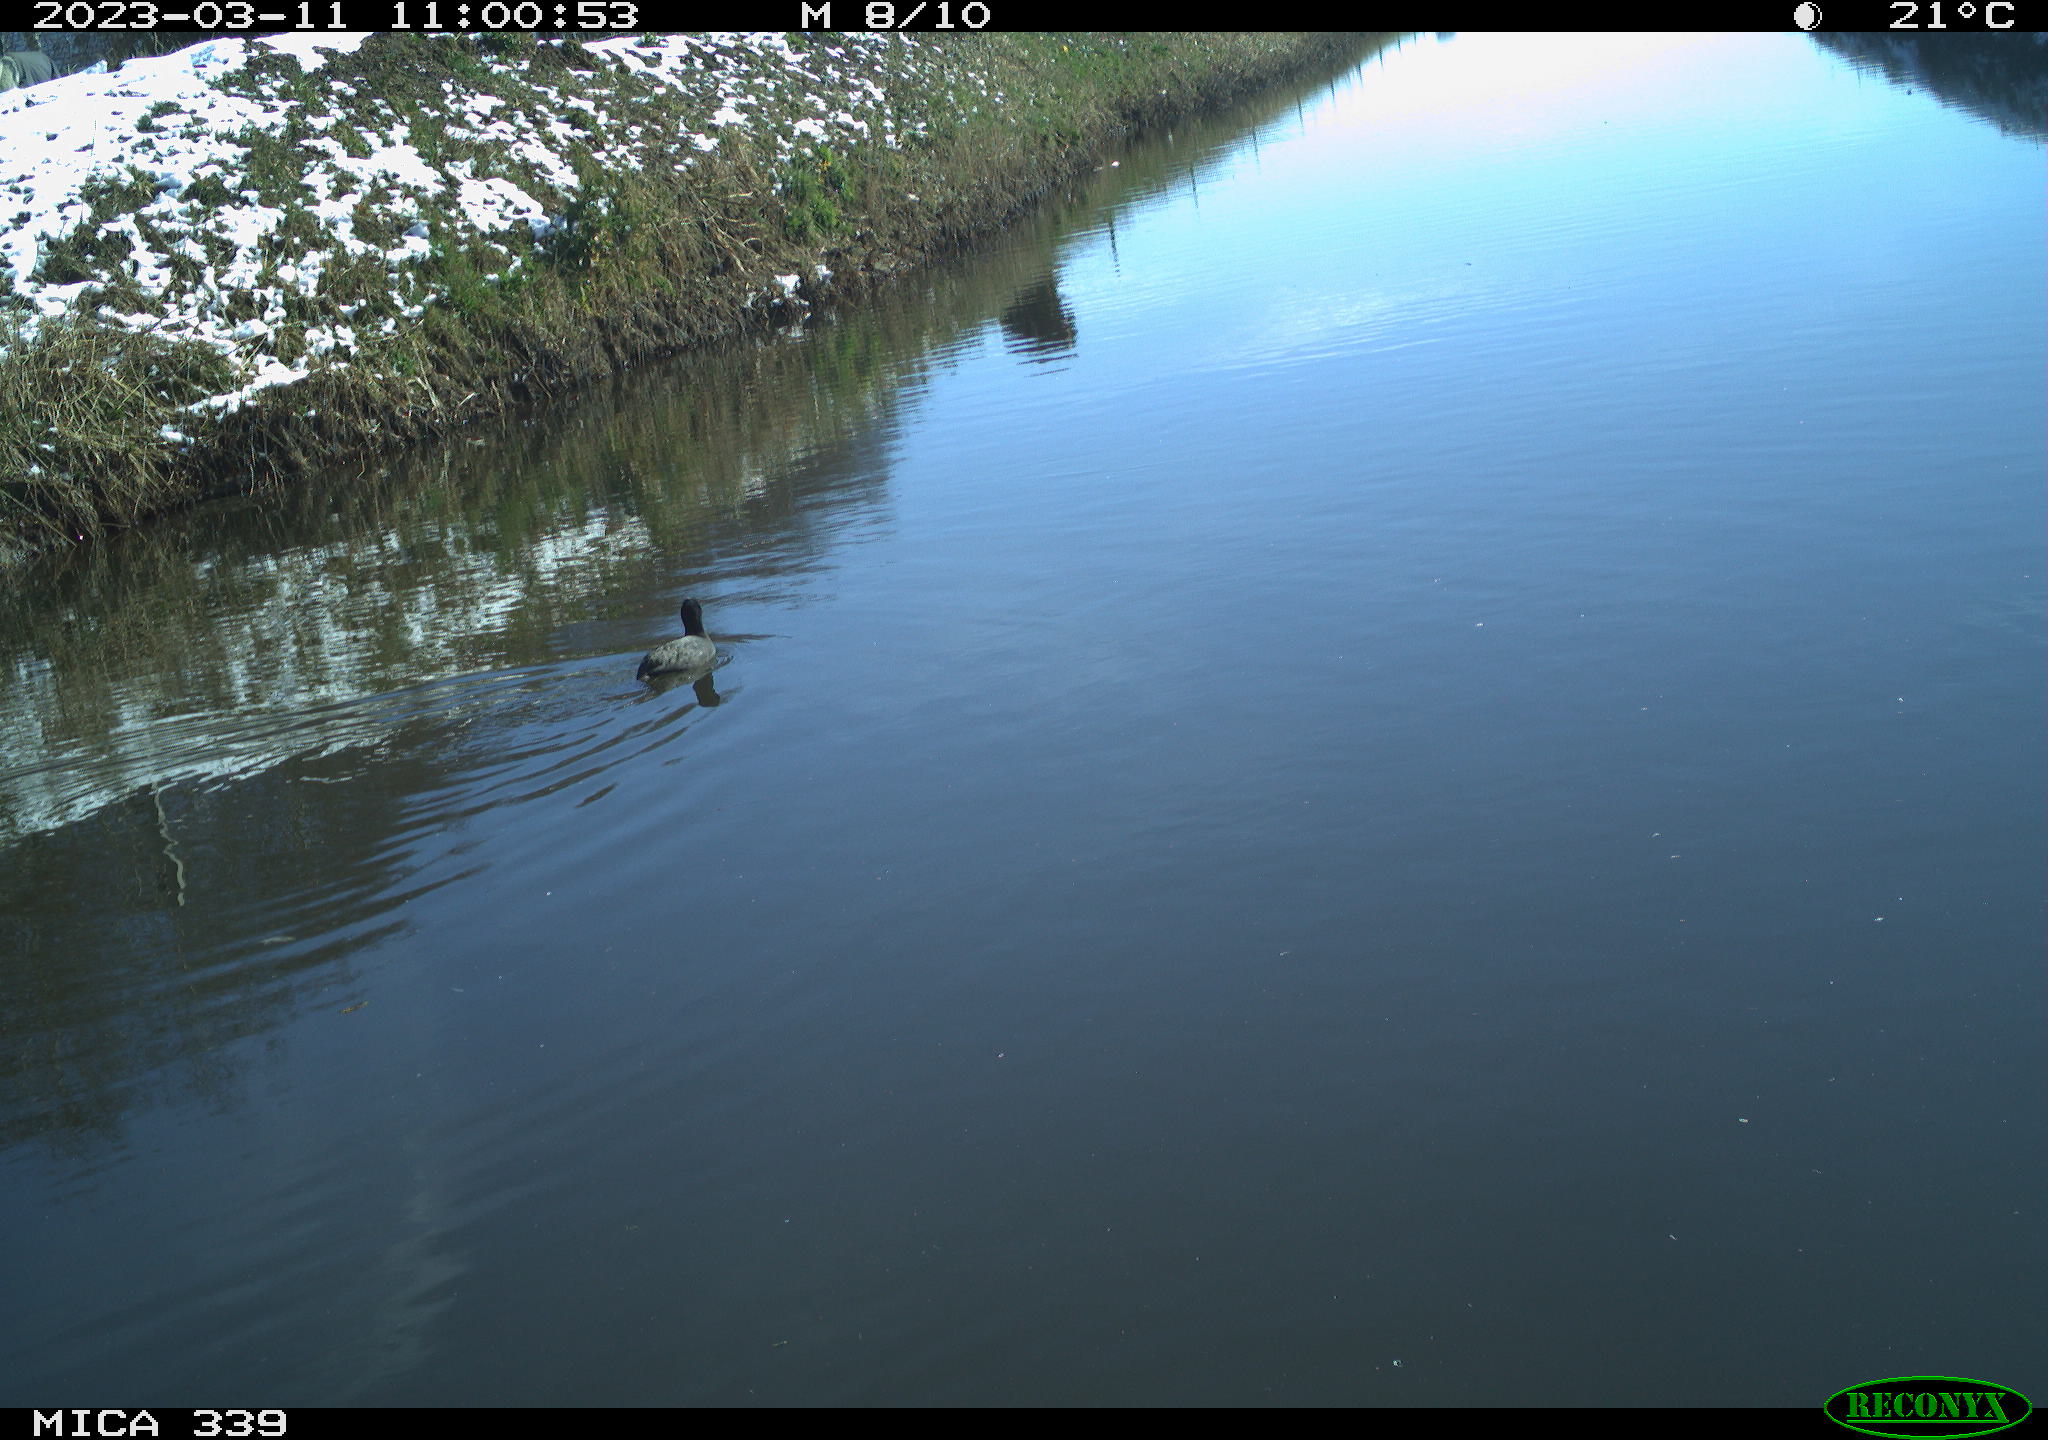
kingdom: Animalia
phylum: Chordata
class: Aves
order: Gruiformes
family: Rallidae
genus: Fulica
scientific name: Fulica atra
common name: Eurasian coot
